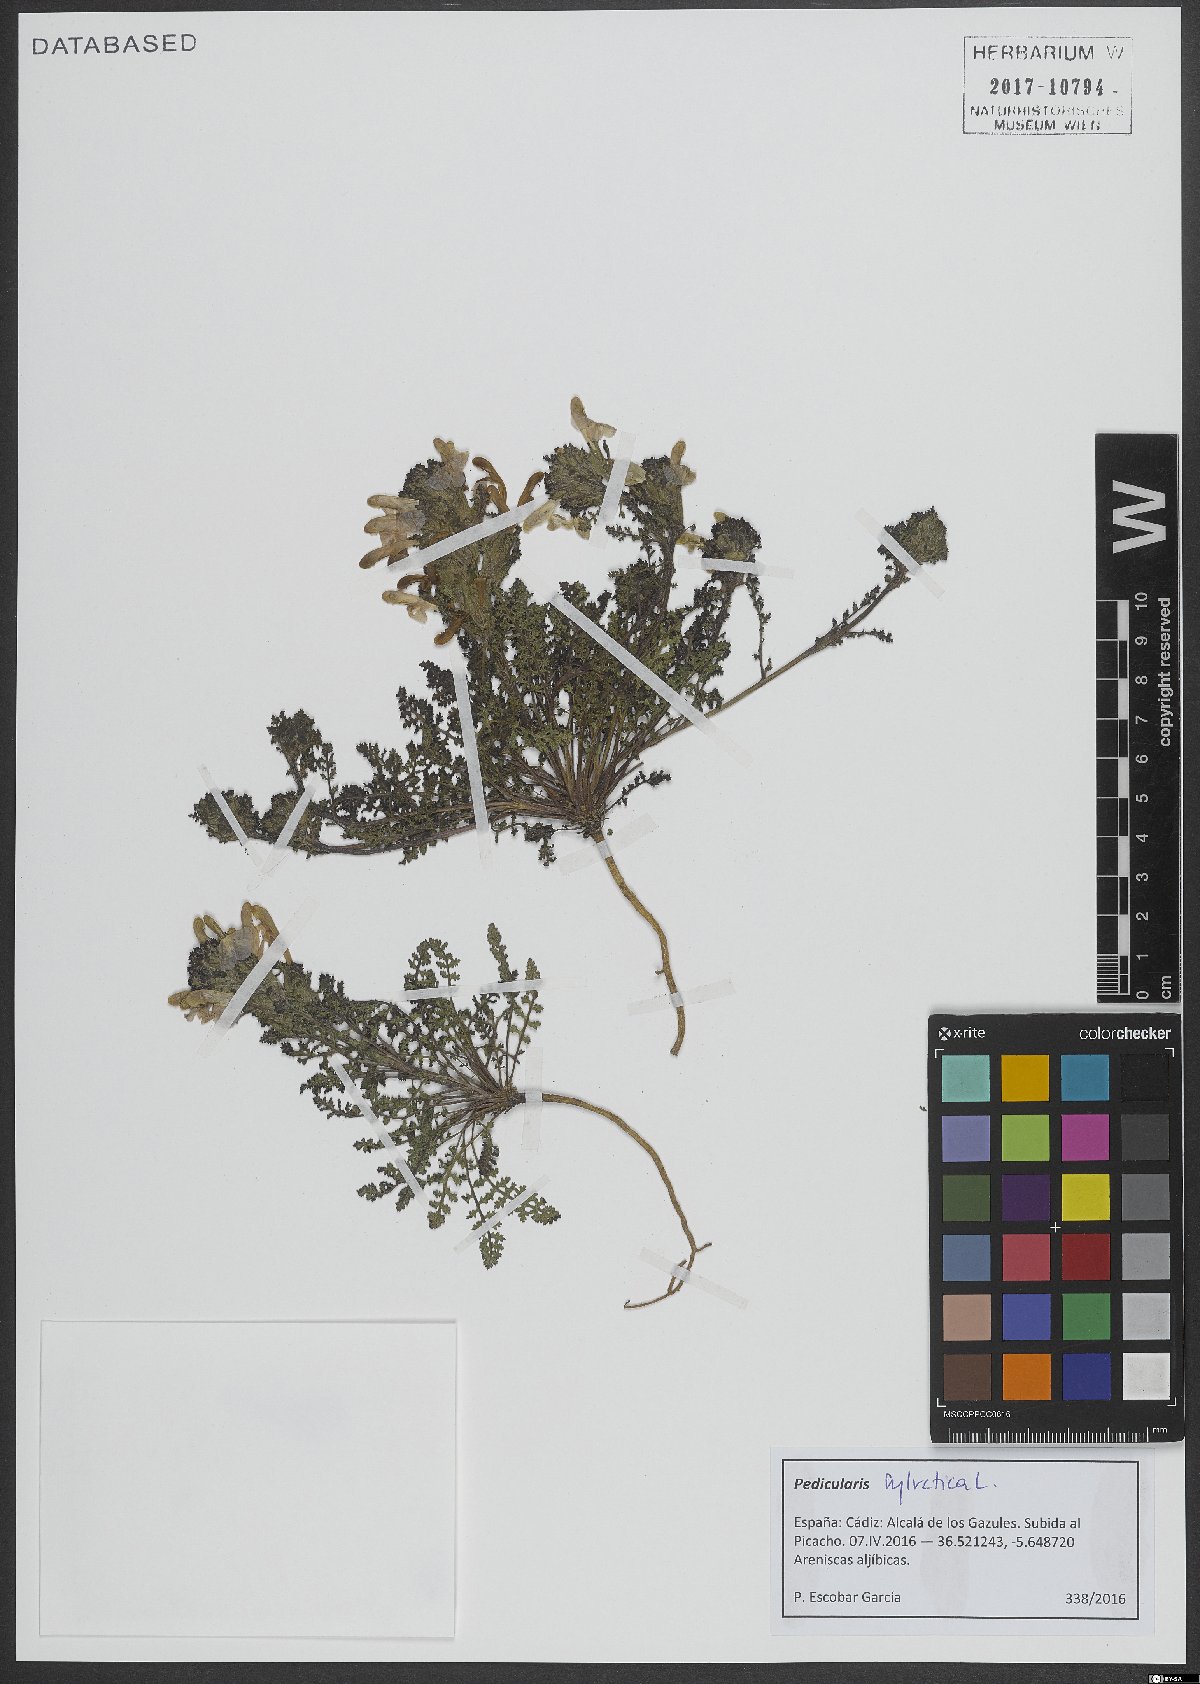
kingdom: Plantae
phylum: Tracheophyta
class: Magnoliopsida
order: Lamiales
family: Orobanchaceae
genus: Pedicularis
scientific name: Pedicularis sylvatica
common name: Lousewort
